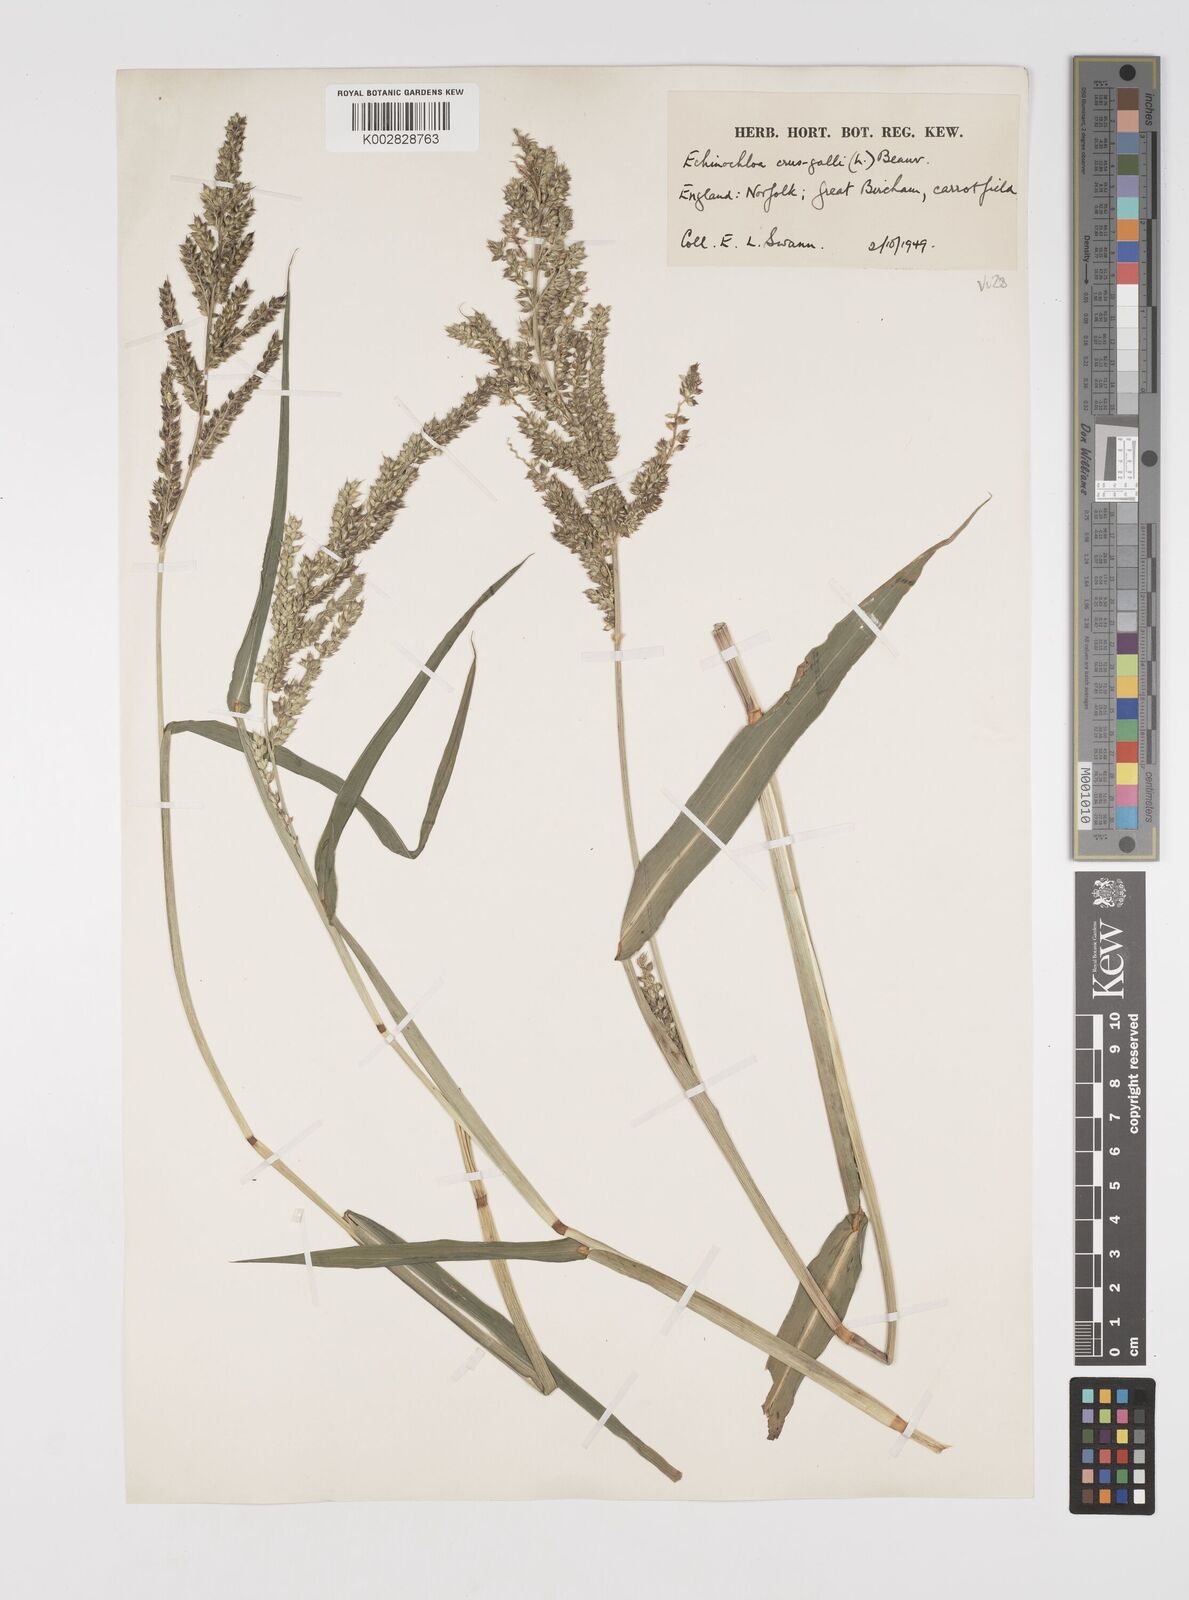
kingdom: Plantae
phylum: Tracheophyta
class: Liliopsida
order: Poales
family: Poaceae
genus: Echinochloa
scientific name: Echinochloa crus-galli
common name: Cockspur
